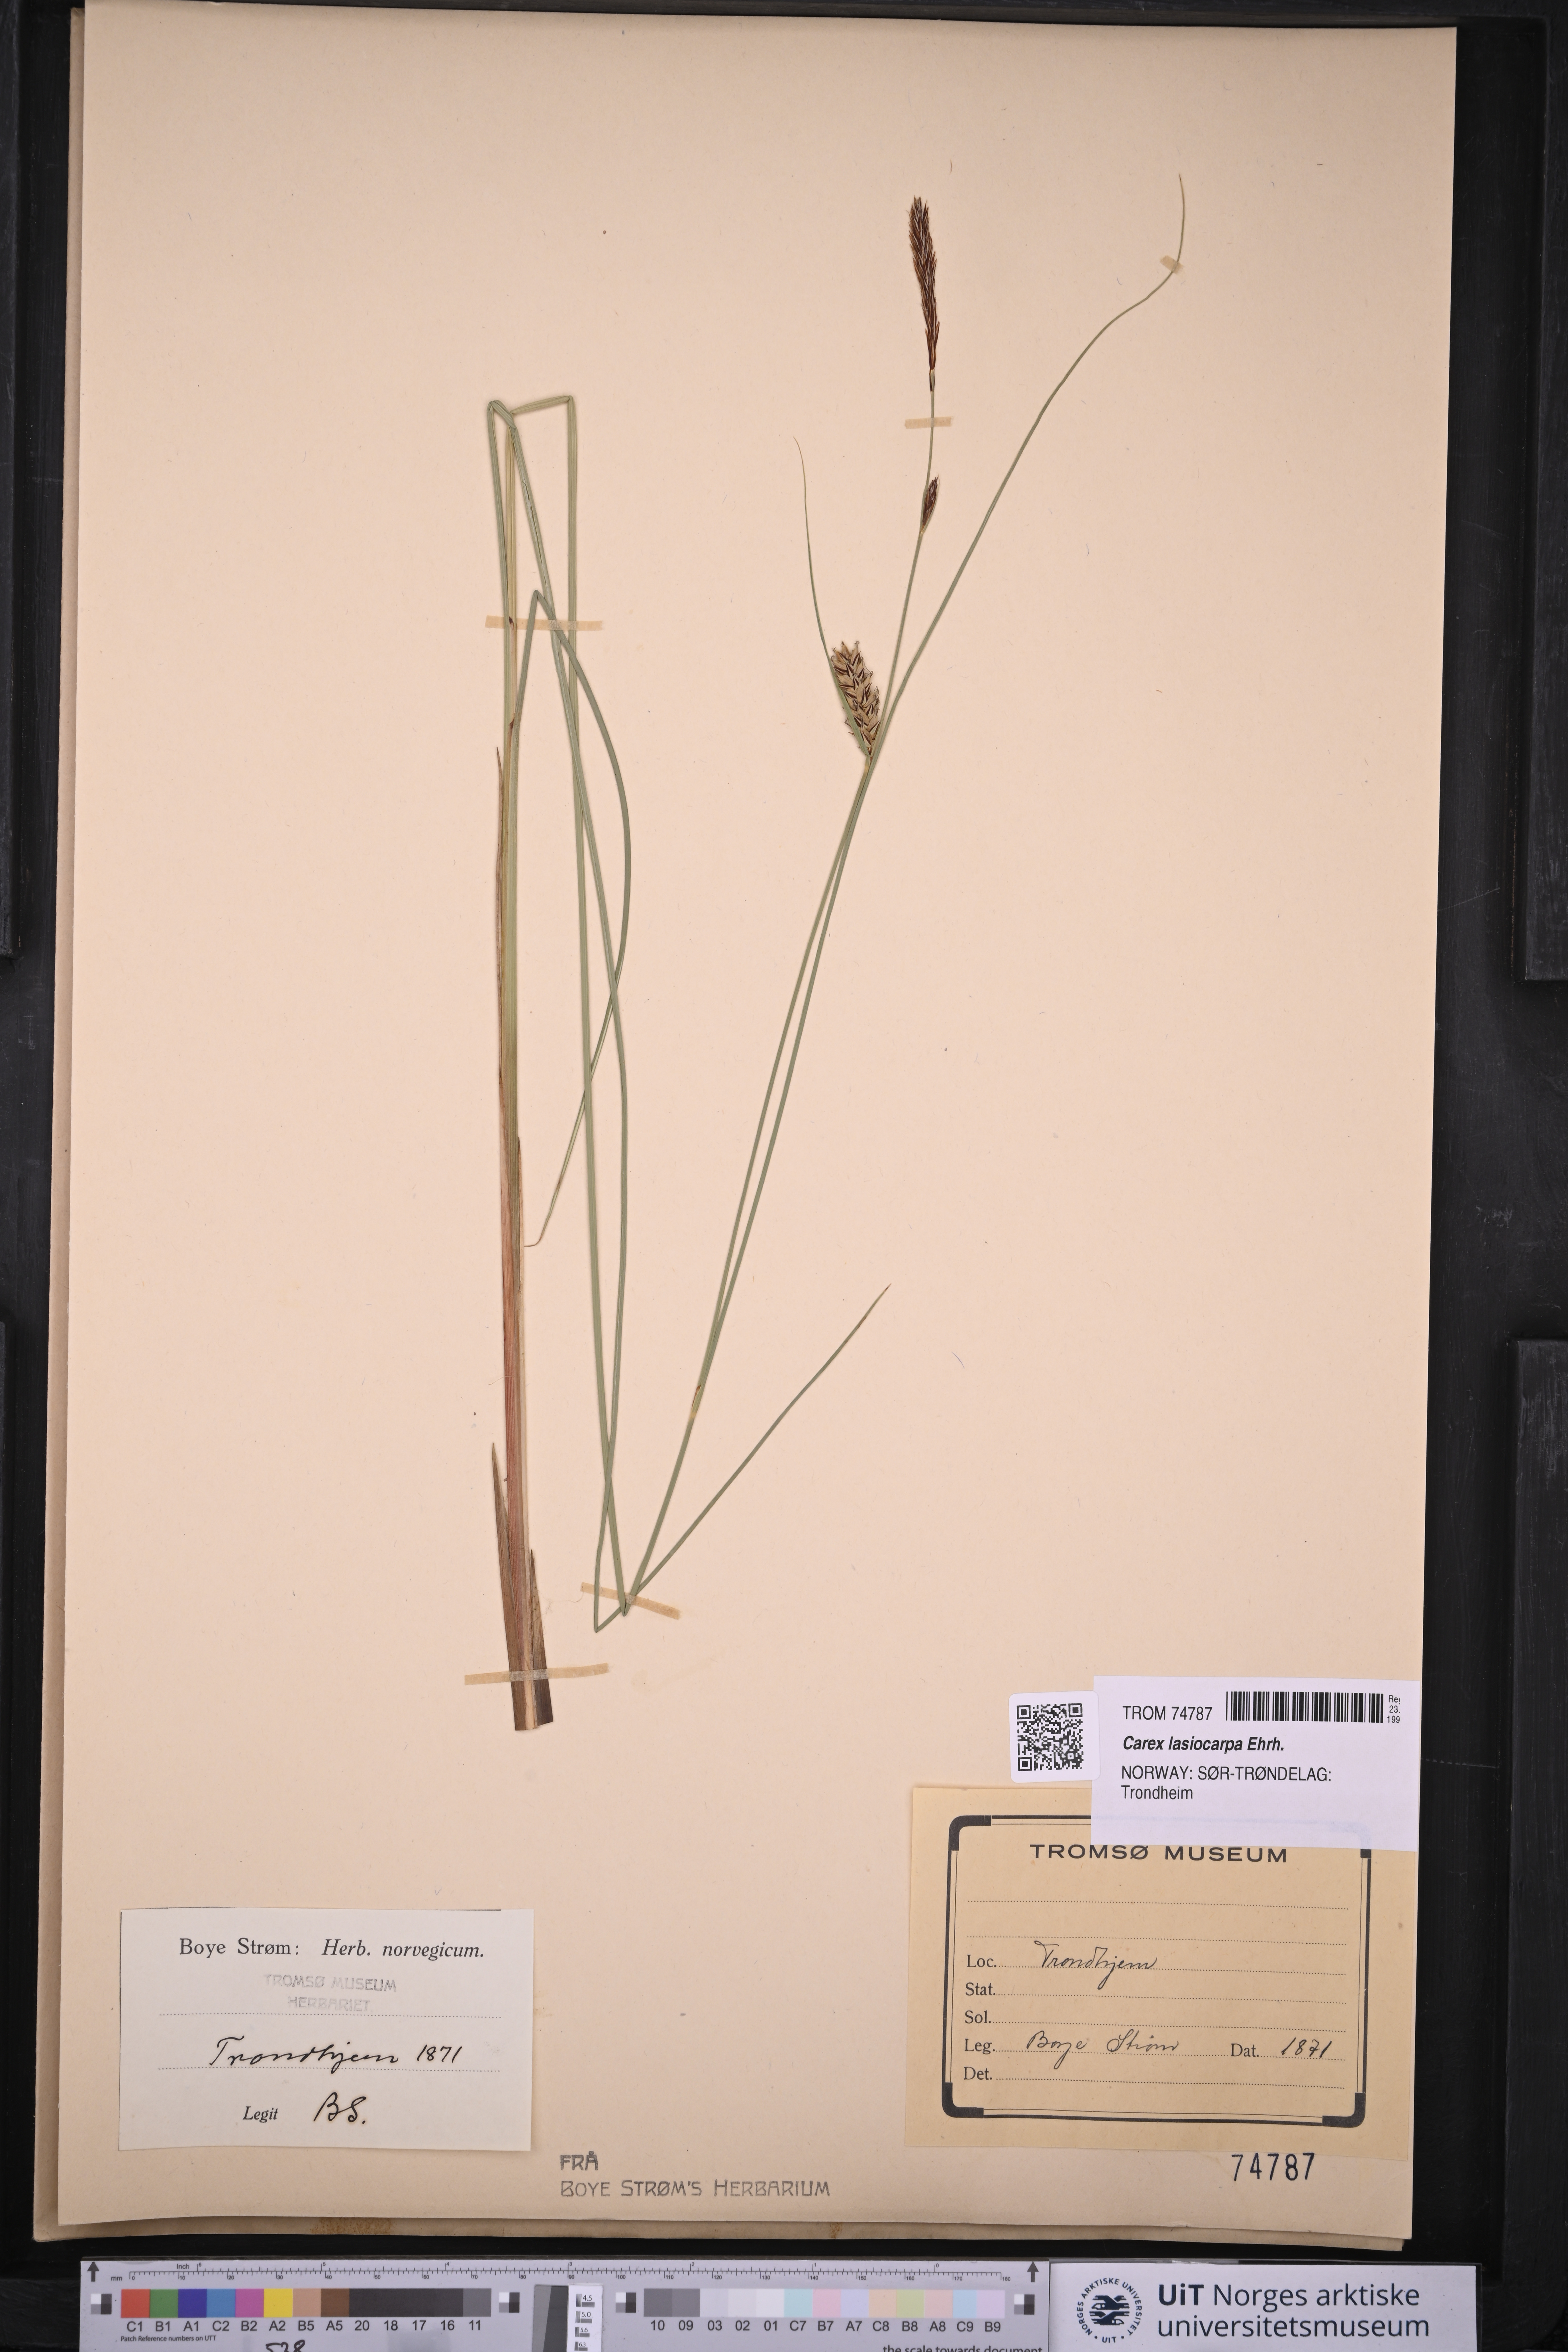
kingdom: Plantae
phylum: Tracheophyta
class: Liliopsida
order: Poales
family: Cyperaceae
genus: Carex
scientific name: Carex lasiocarpa
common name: Slender sedge
